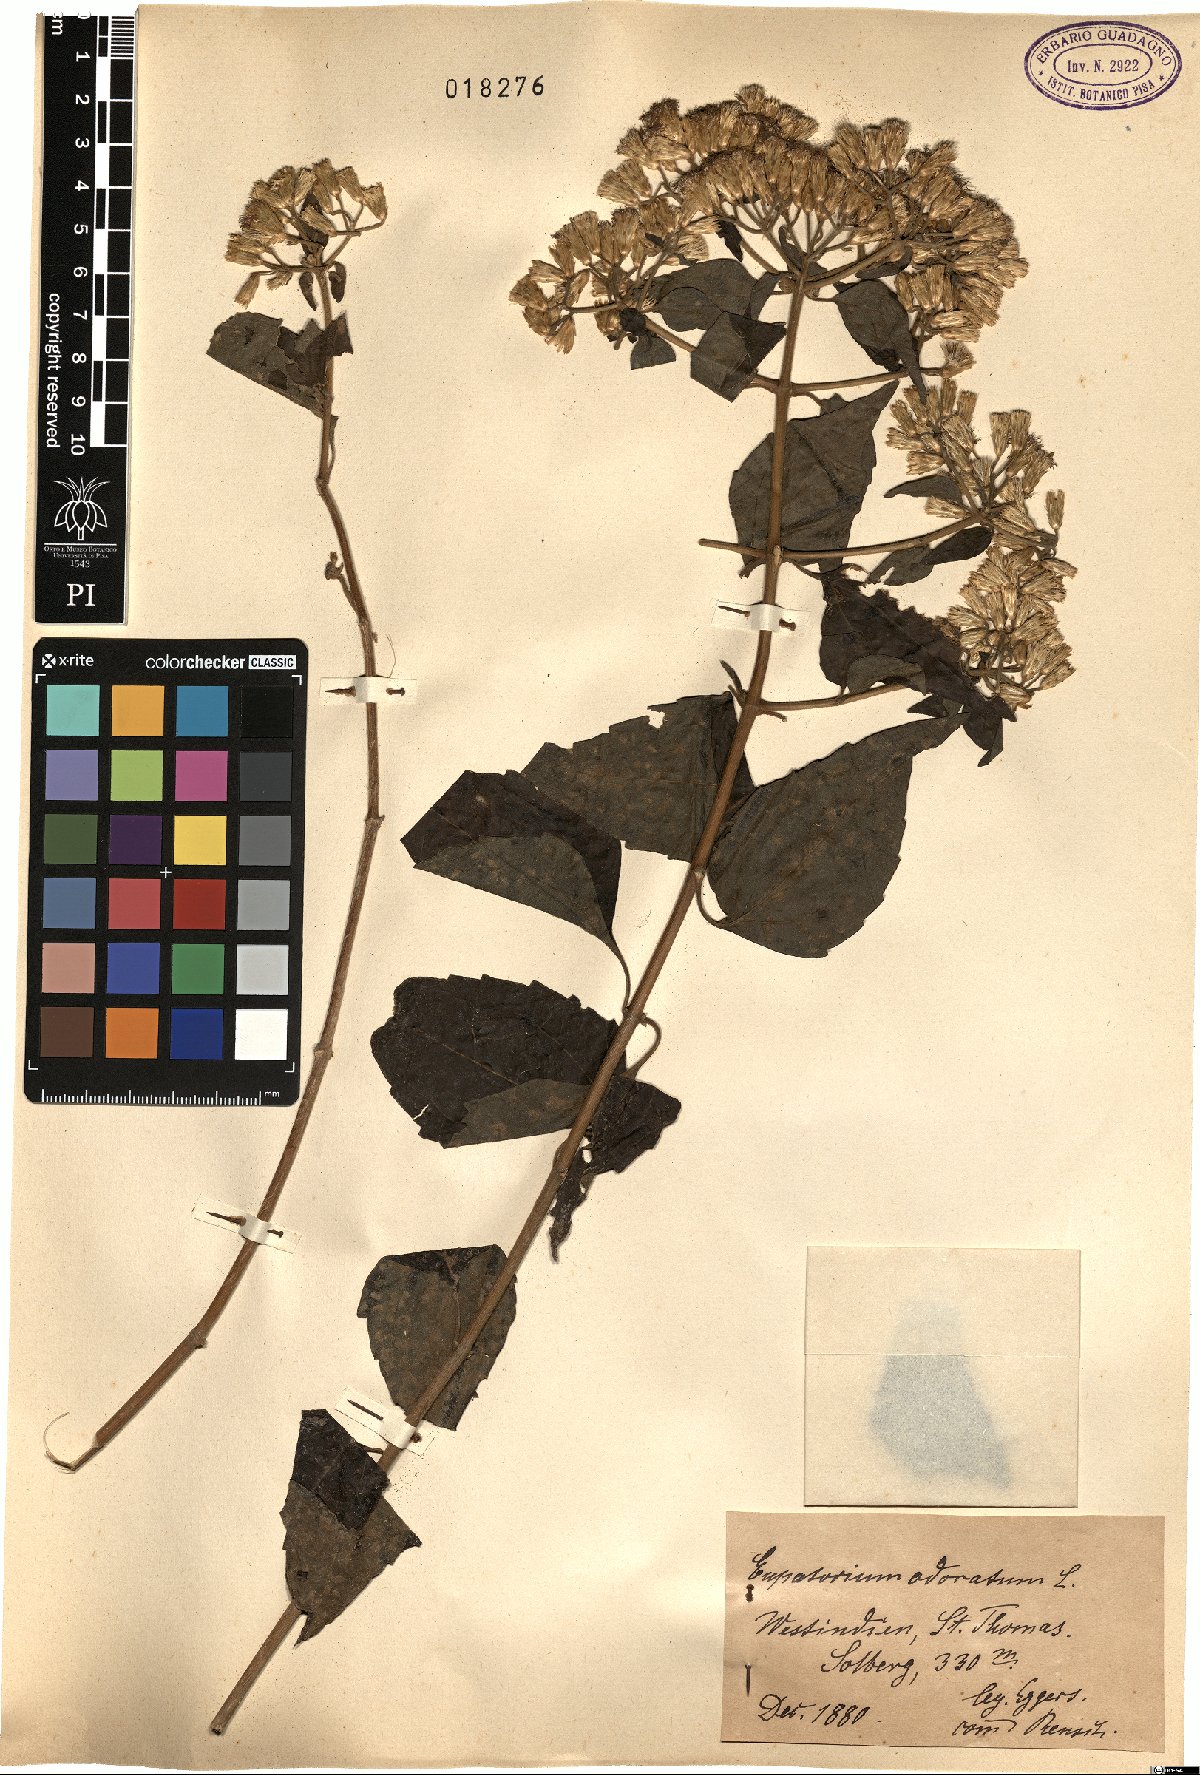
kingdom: Plantae
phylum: Tracheophyta
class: Magnoliopsida
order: Asterales
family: Asteraceae
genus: Chromolaena
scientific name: Chromolaena odorata
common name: Siamweed
